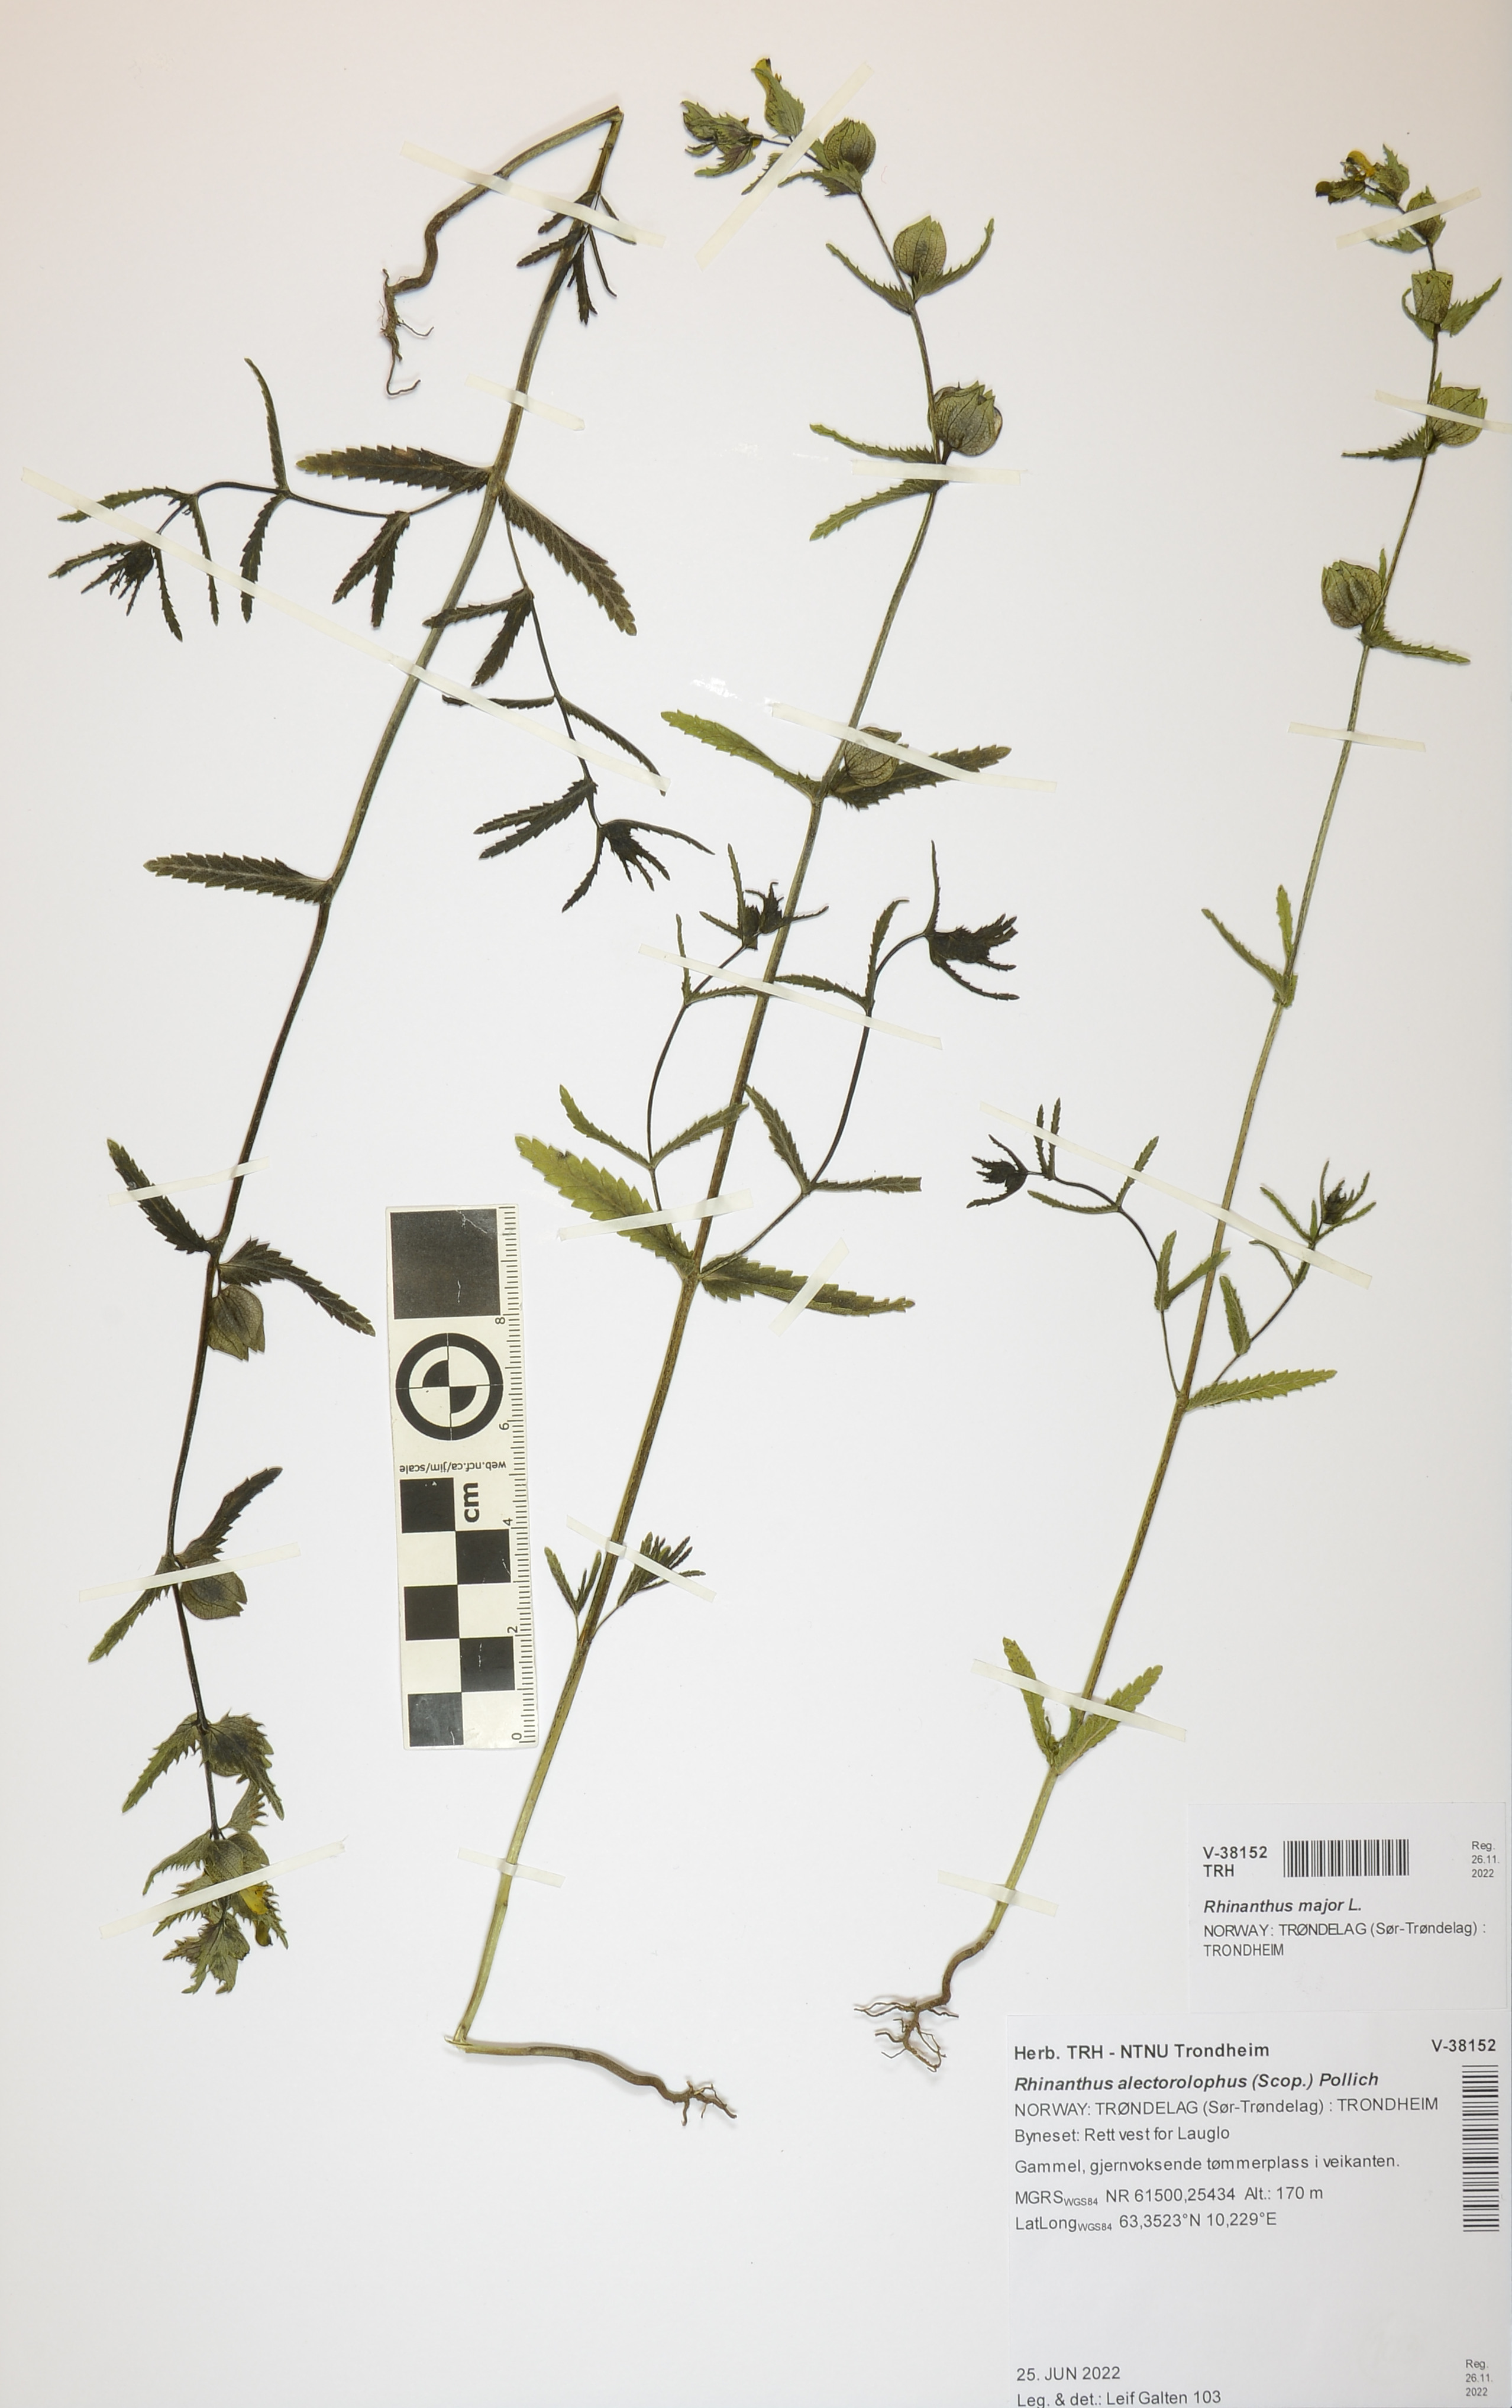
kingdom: Plantae
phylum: Tracheophyta
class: Magnoliopsida
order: Lamiales
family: Orobanchaceae
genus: Rhinanthus
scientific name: Rhinanthus alectorolophus
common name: Greater yellow-rattle
